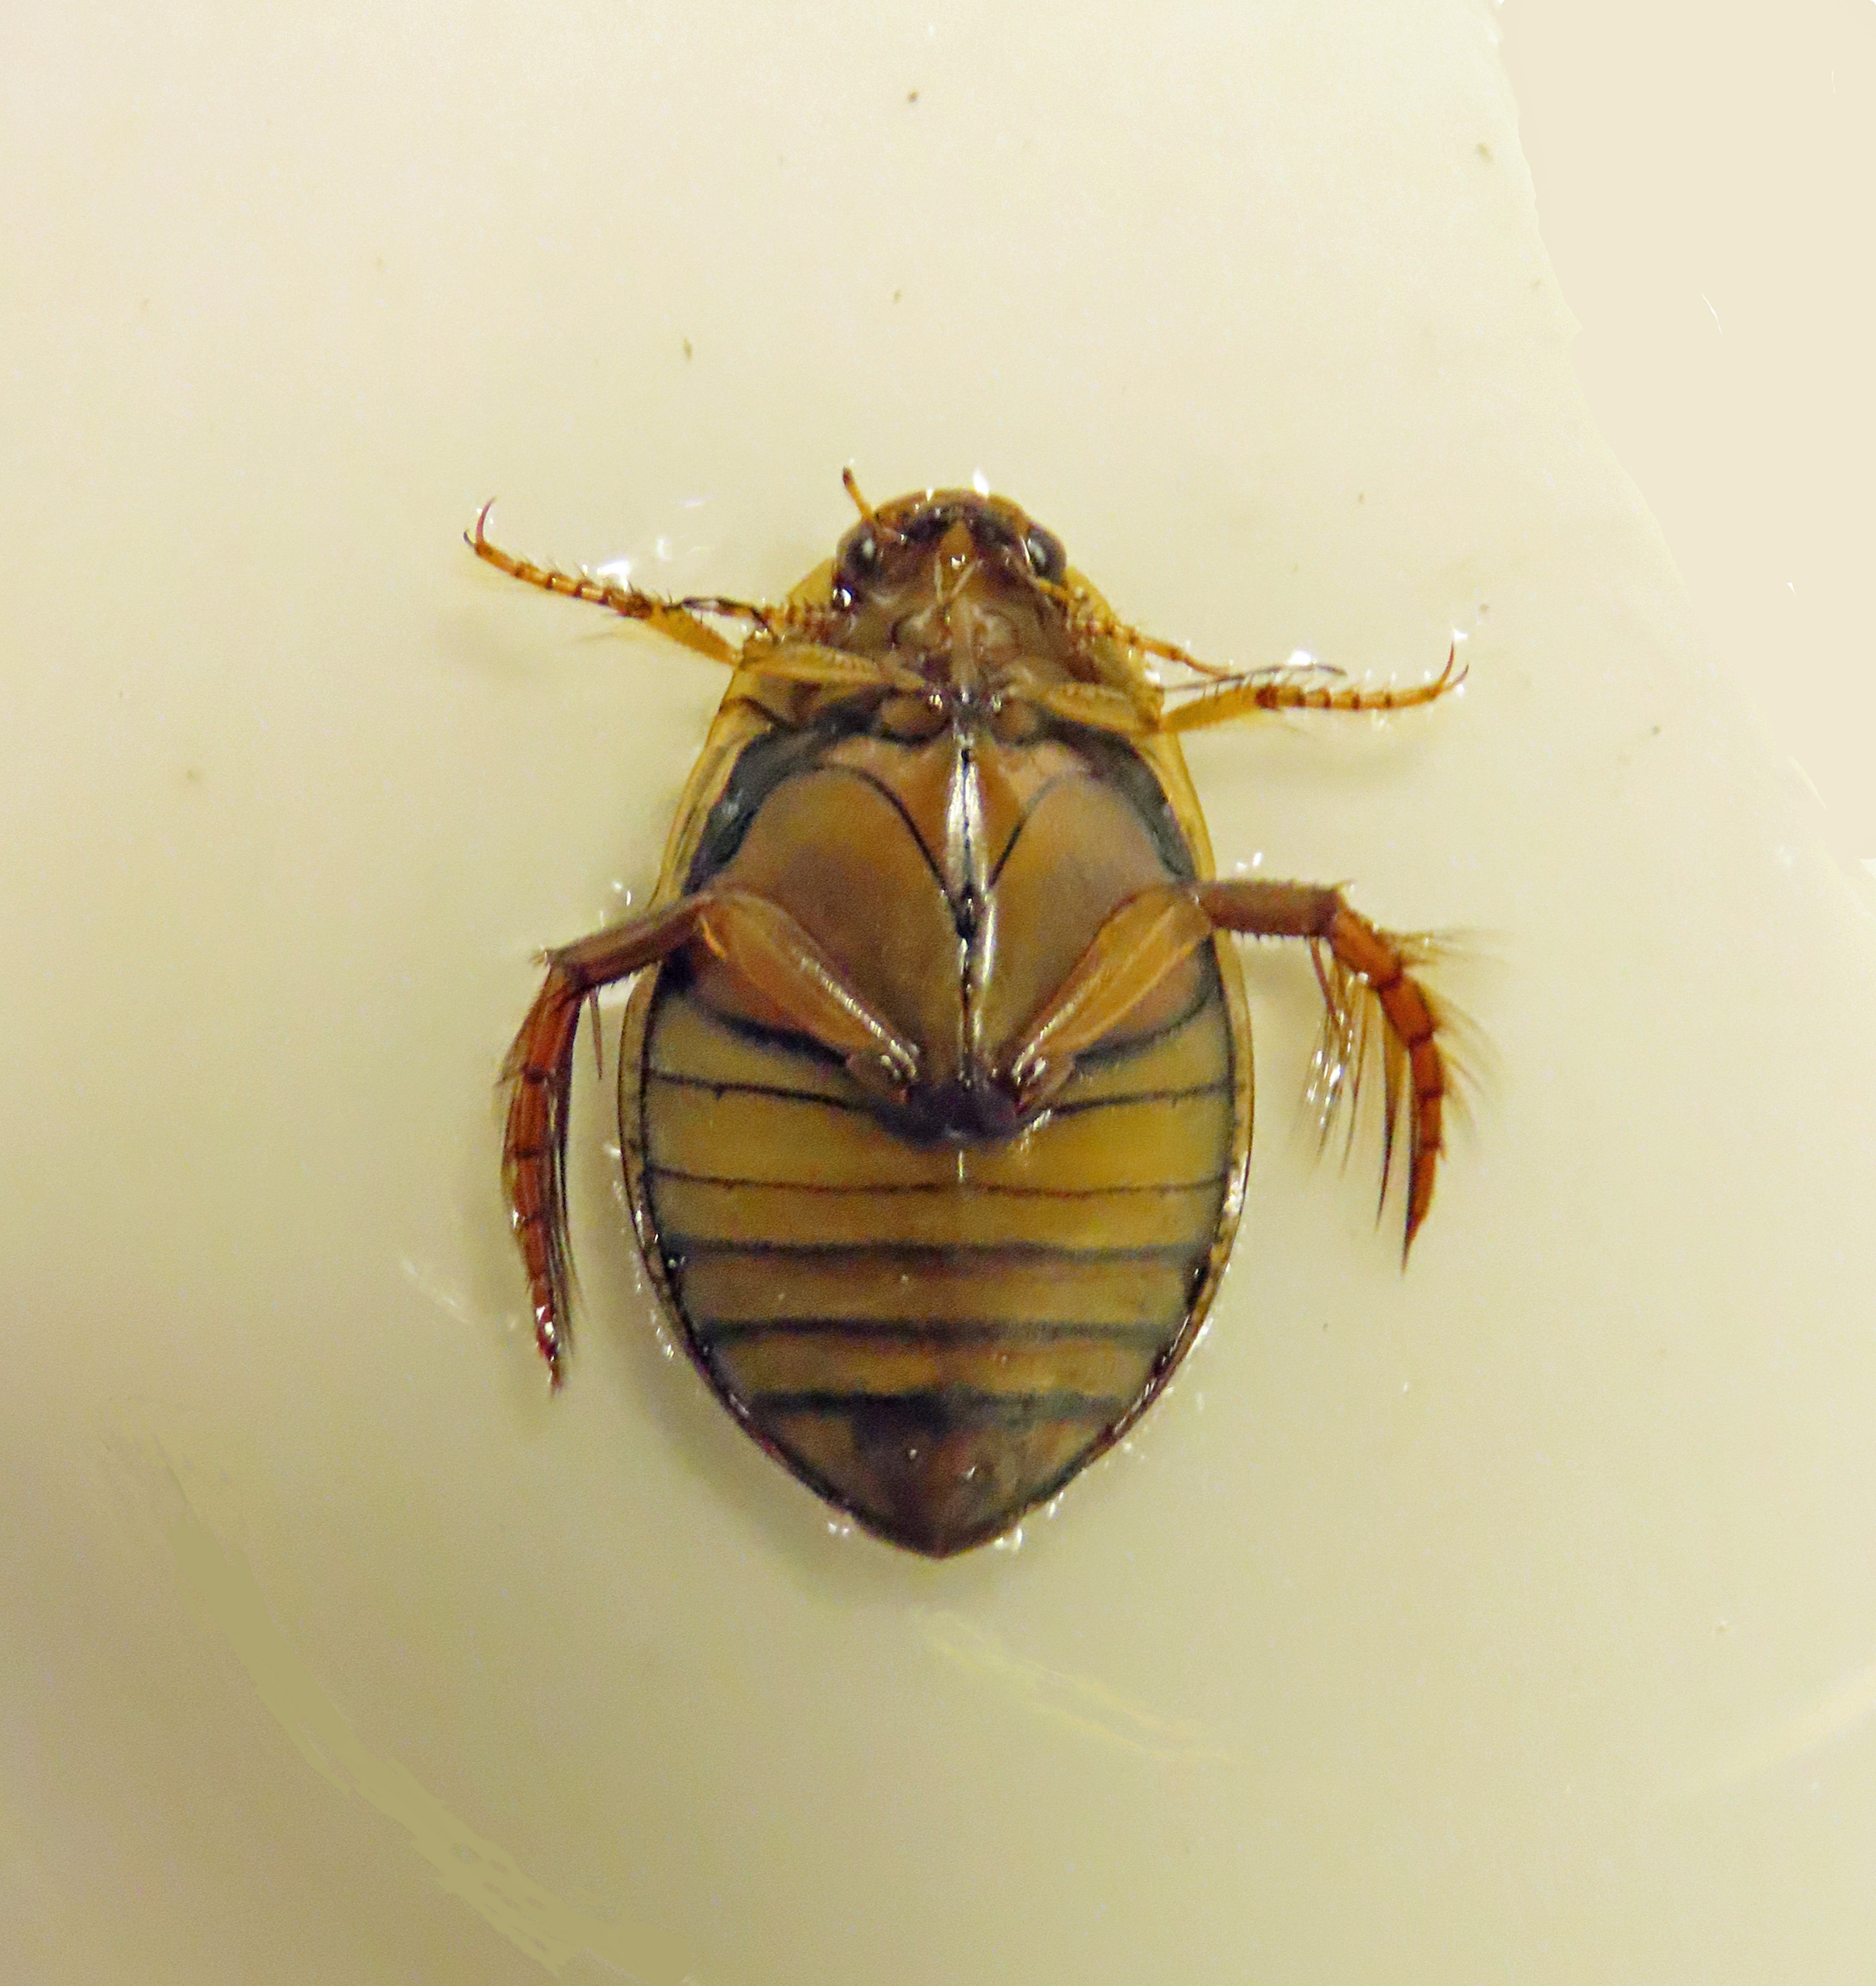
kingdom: Animalia
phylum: Arthropoda
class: Insecta
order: Coleoptera
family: Dytiscidae
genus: Acilius
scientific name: Acilius canaliculatus
